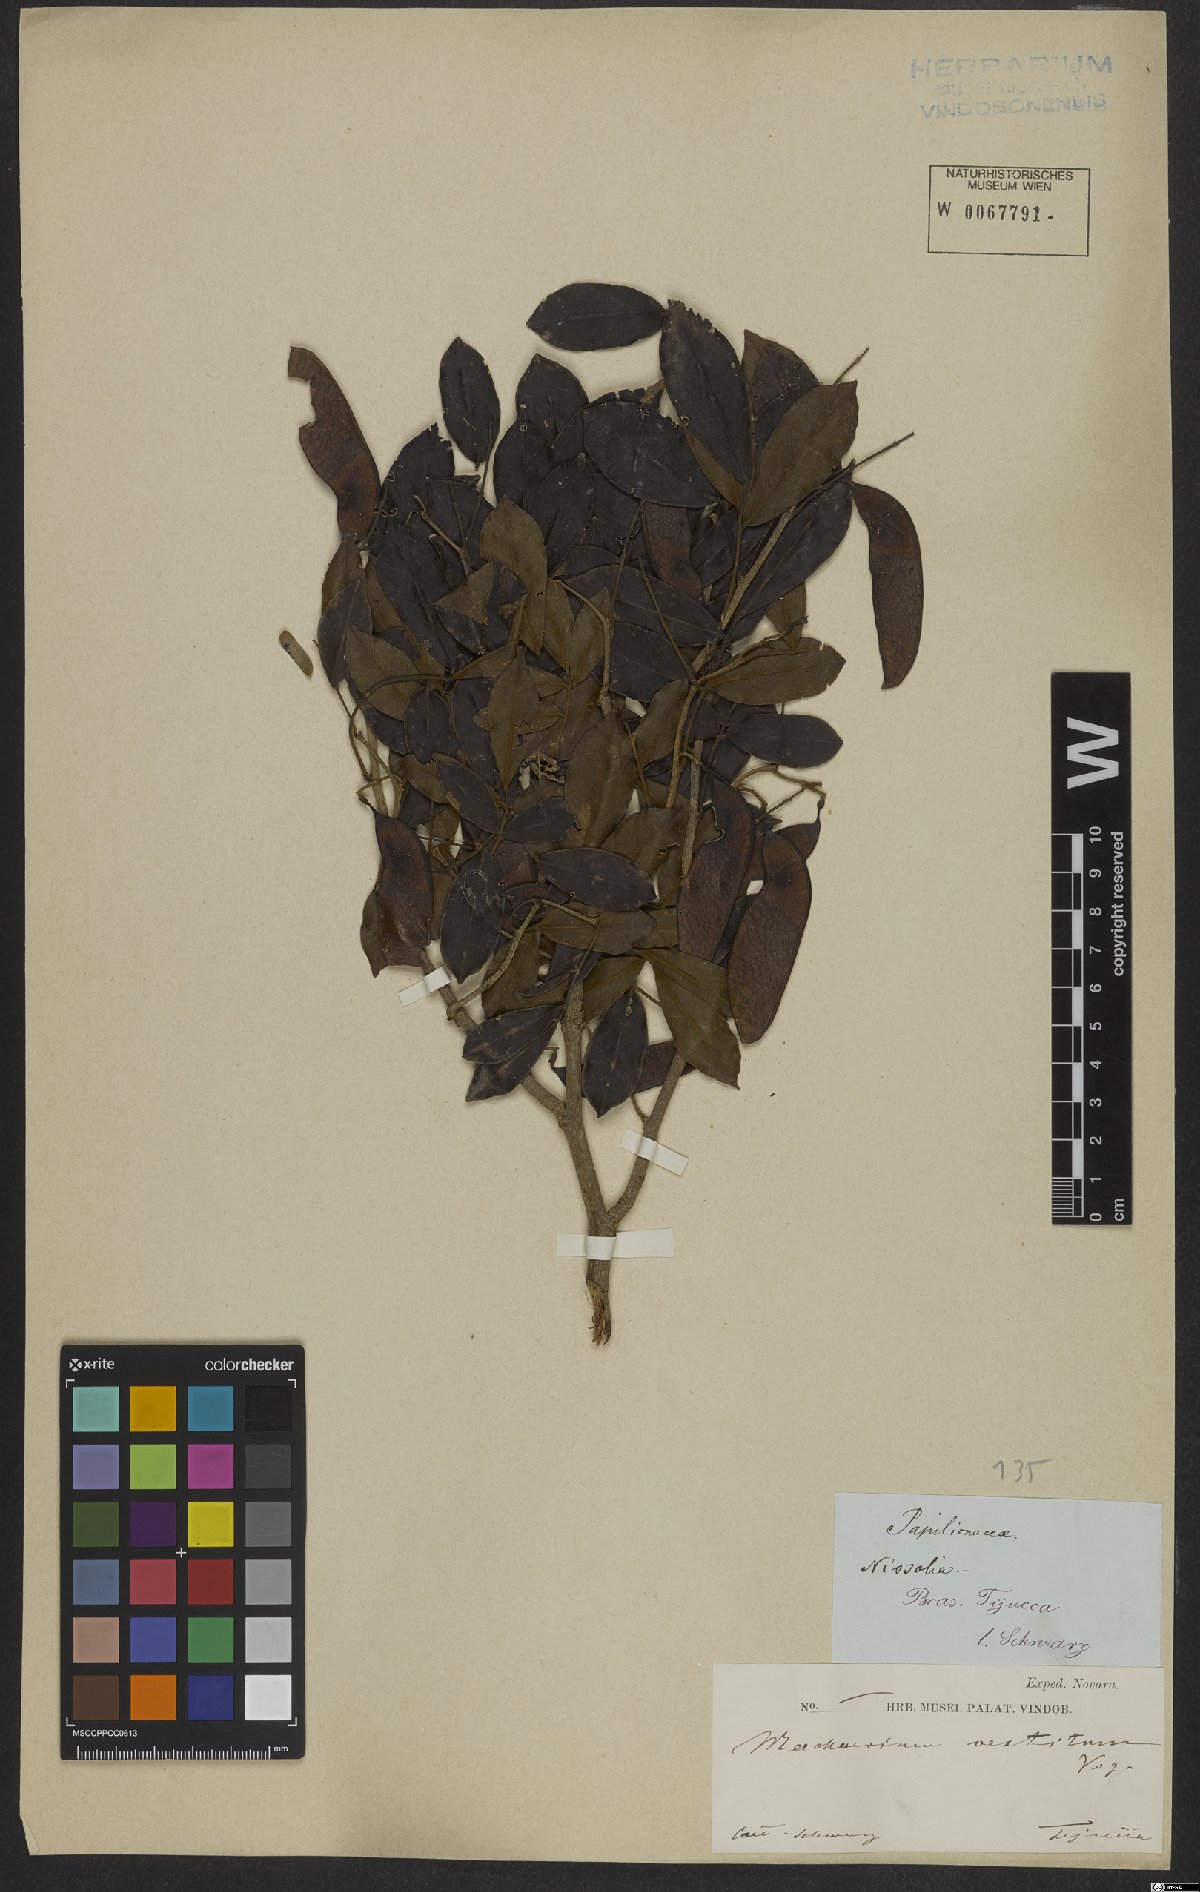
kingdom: Plantae
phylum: Tracheophyta
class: Magnoliopsida
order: Fabales
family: Fabaceae
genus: Machaerium
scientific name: Machaerium brasiliense
